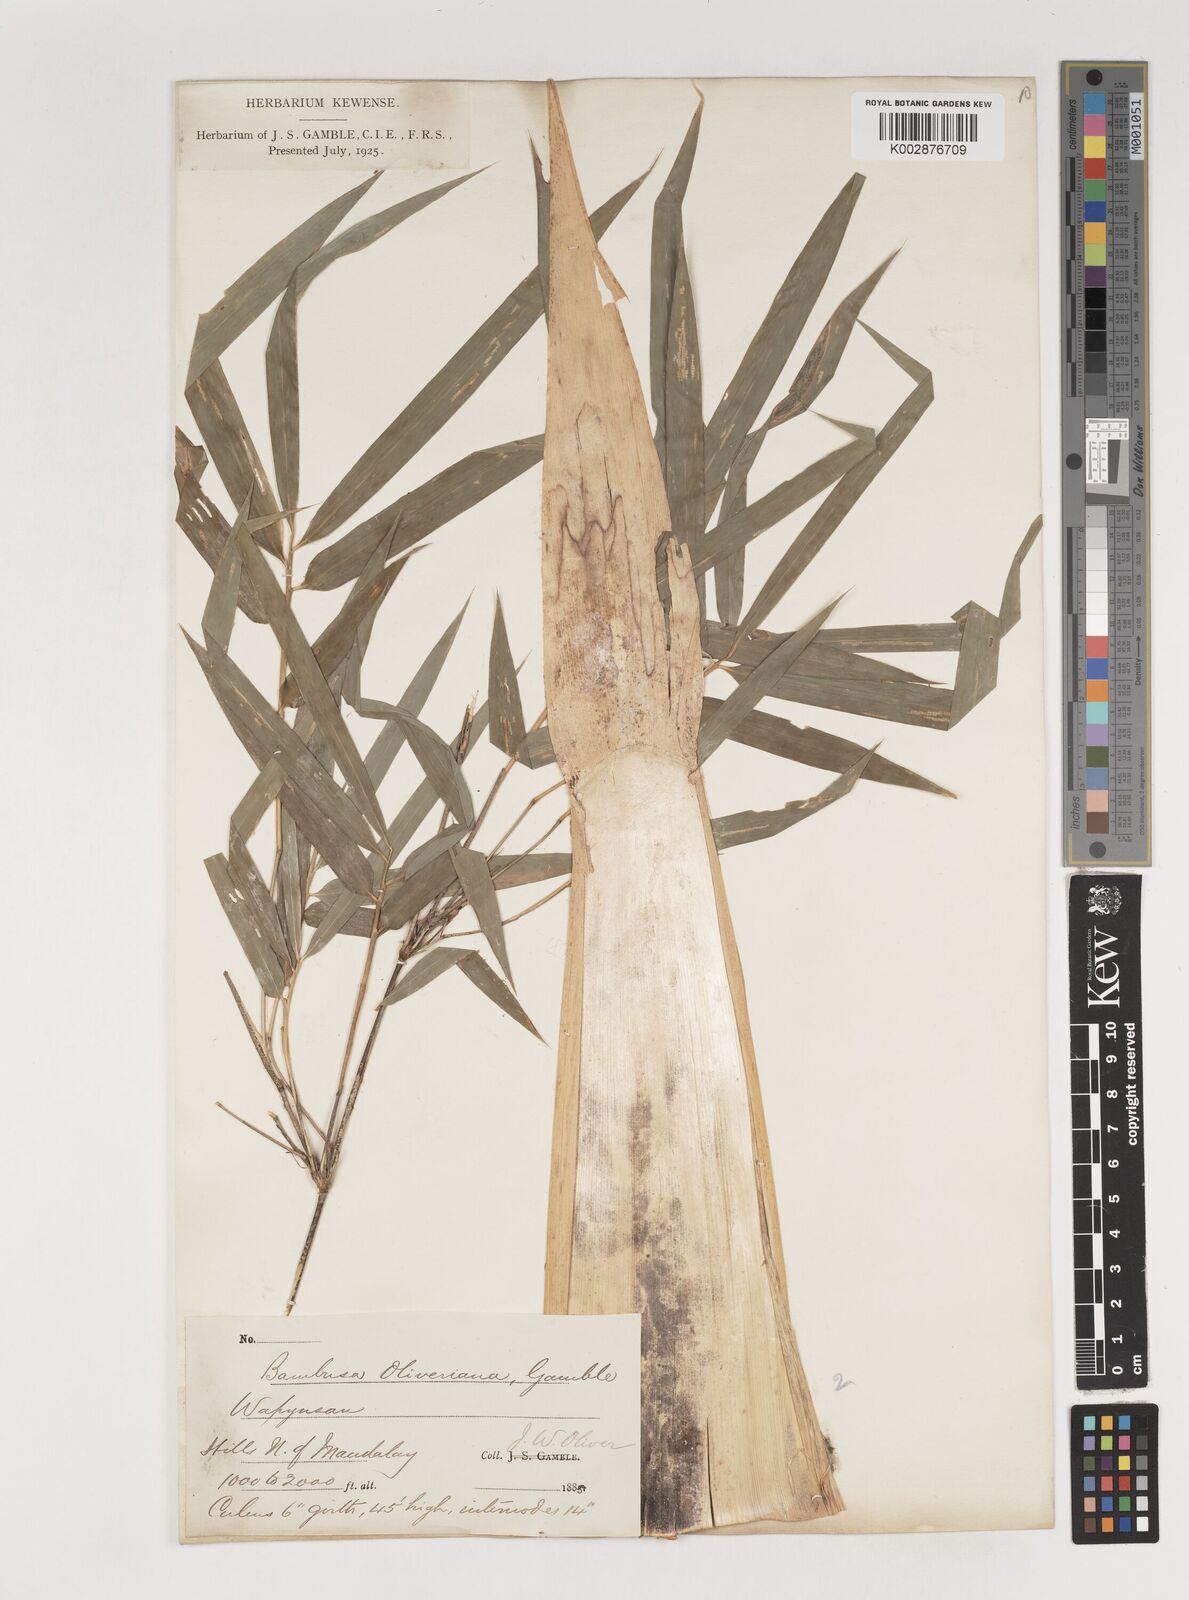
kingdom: Plantae
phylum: Tracheophyta
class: Liliopsida
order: Poales
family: Poaceae
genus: Bambusa
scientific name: Bambusa oliveriana
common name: Bush bamboo
